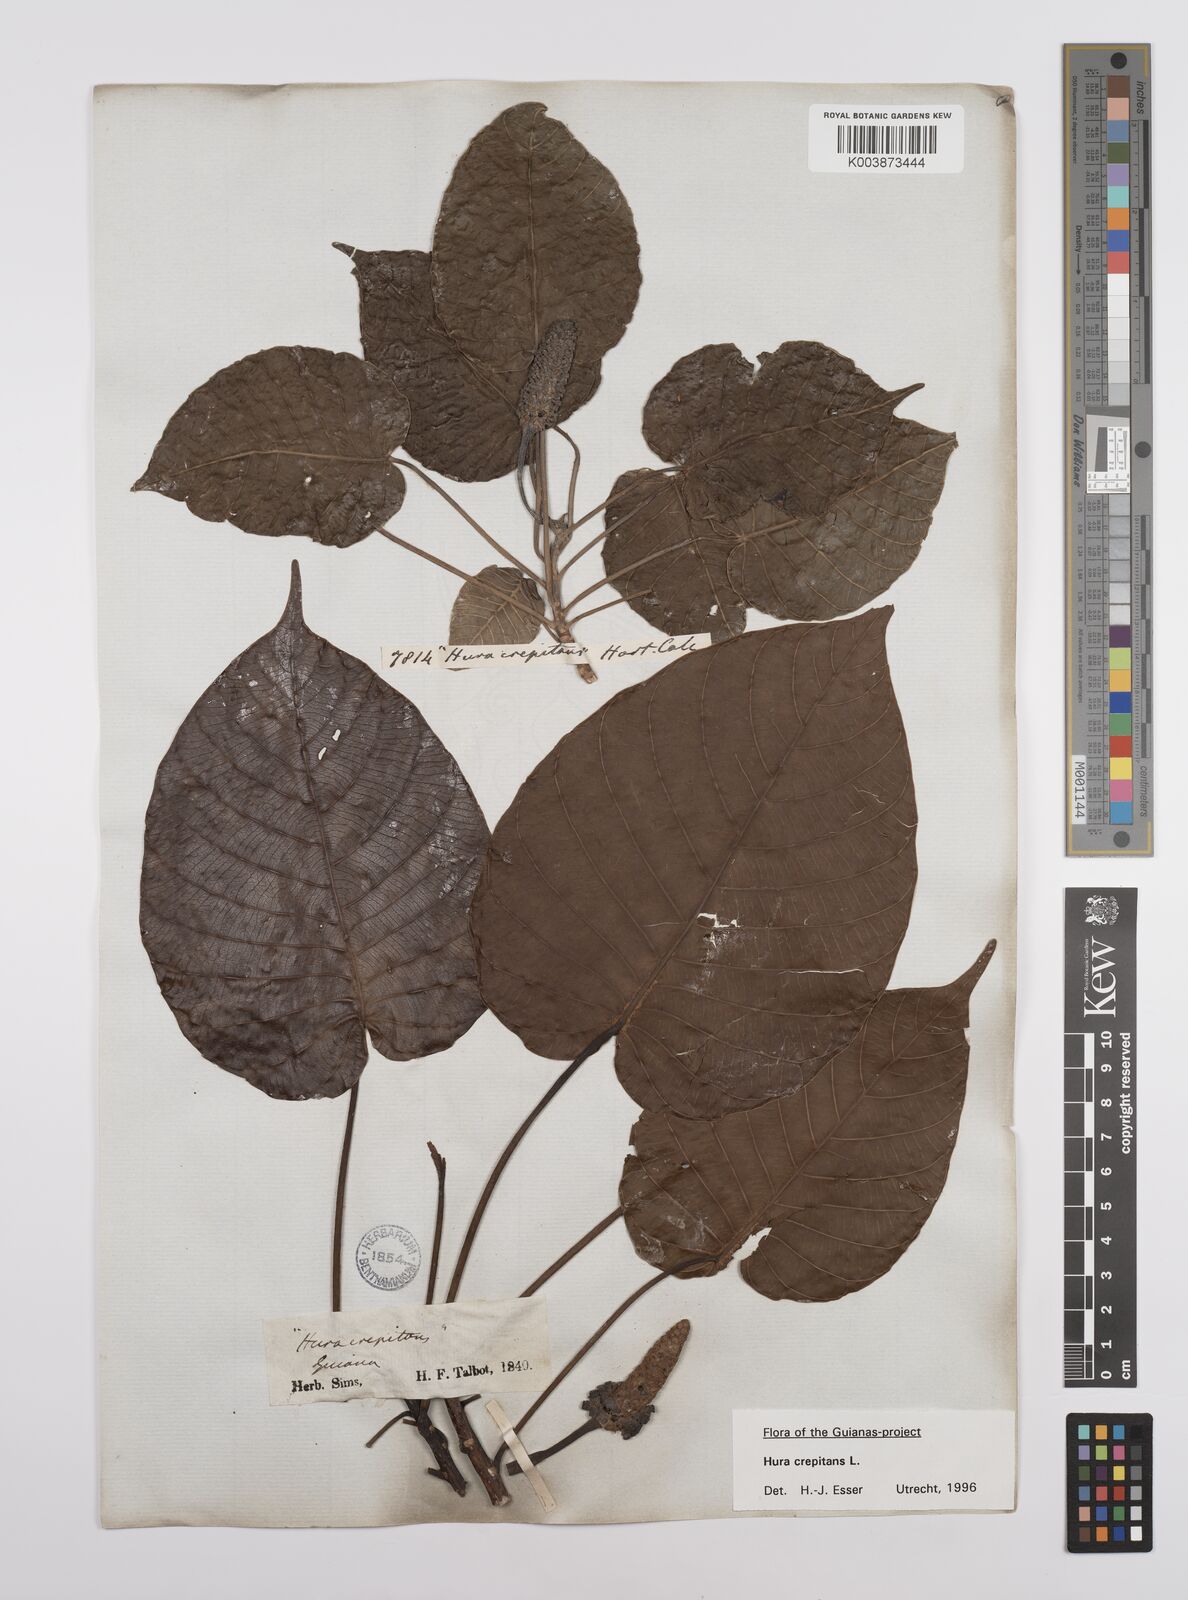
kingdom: Plantae
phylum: Tracheophyta
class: Magnoliopsida
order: Malpighiales
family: Euphorbiaceae
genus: Hura
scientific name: Hura crepitans
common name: Sandboxtree
